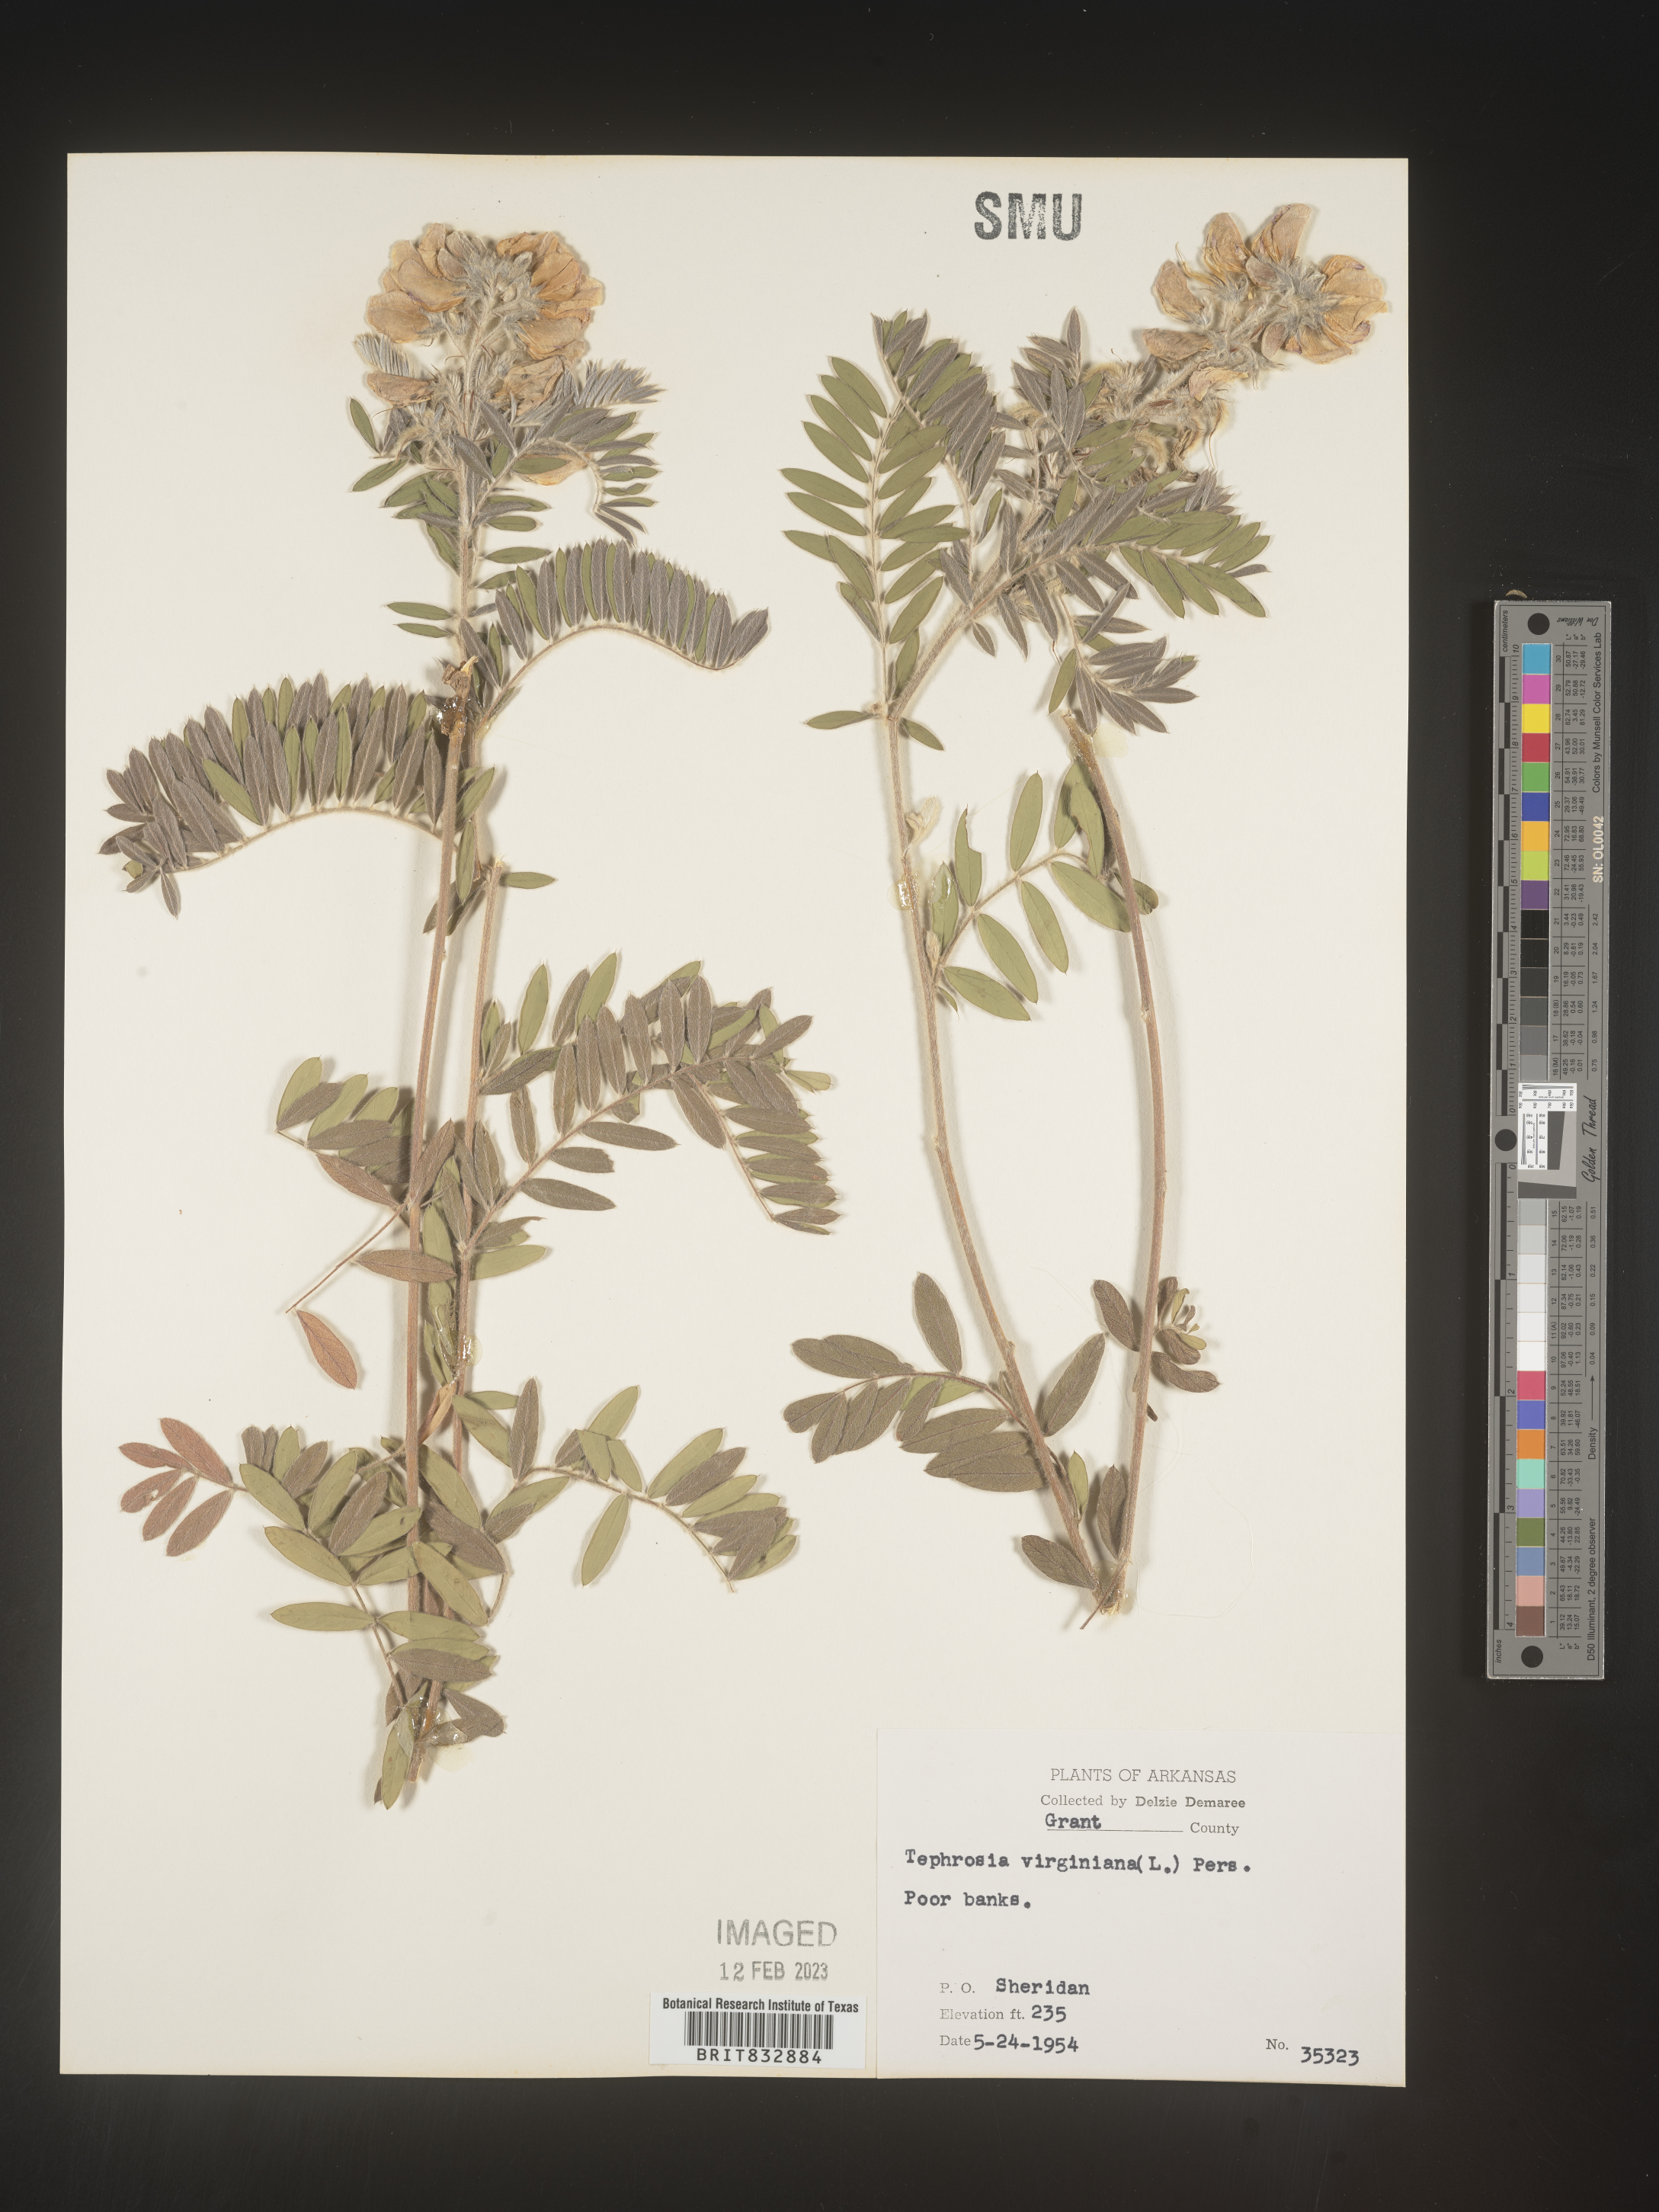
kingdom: Plantae
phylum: Tracheophyta
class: Magnoliopsida
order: Fabales
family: Fabaceae
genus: Tephrosia
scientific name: Tephrosia virginiana
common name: Rabbit-pea
